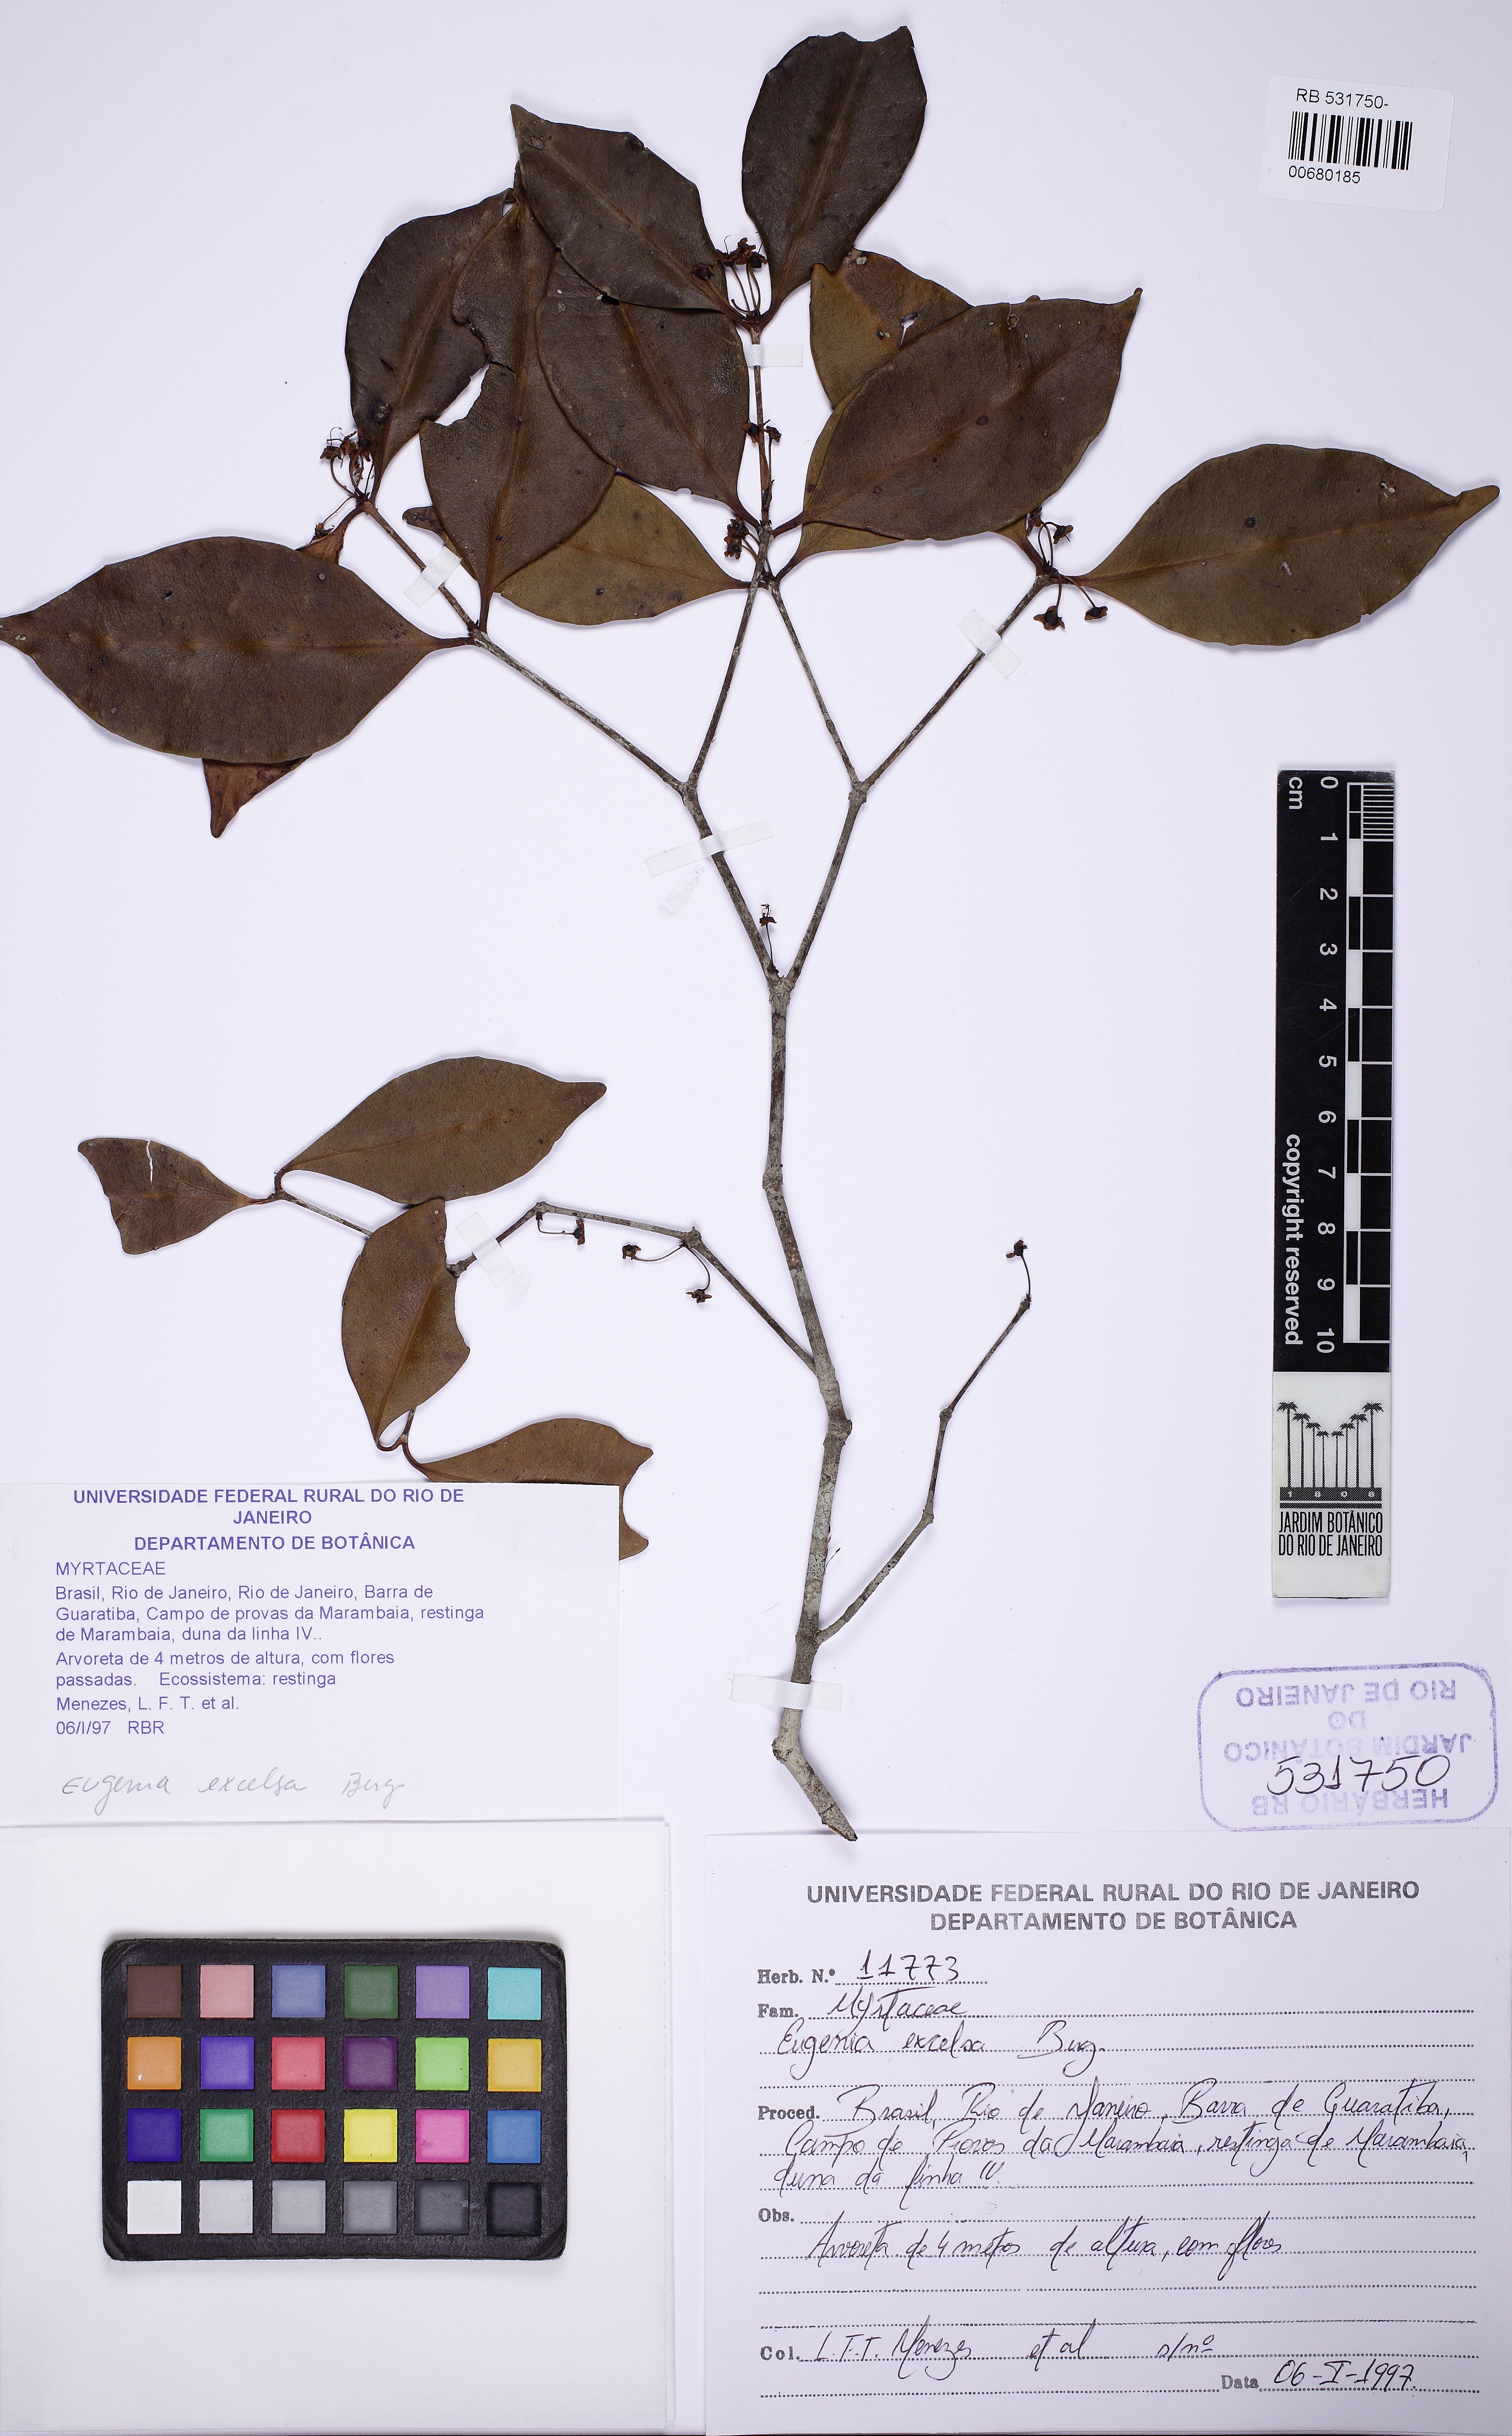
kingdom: Plantae
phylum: Tracheophyta
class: Magnoliopsida
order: Myrtales
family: Myrtaceae
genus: Eugenia
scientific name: Eugenia excelsa
